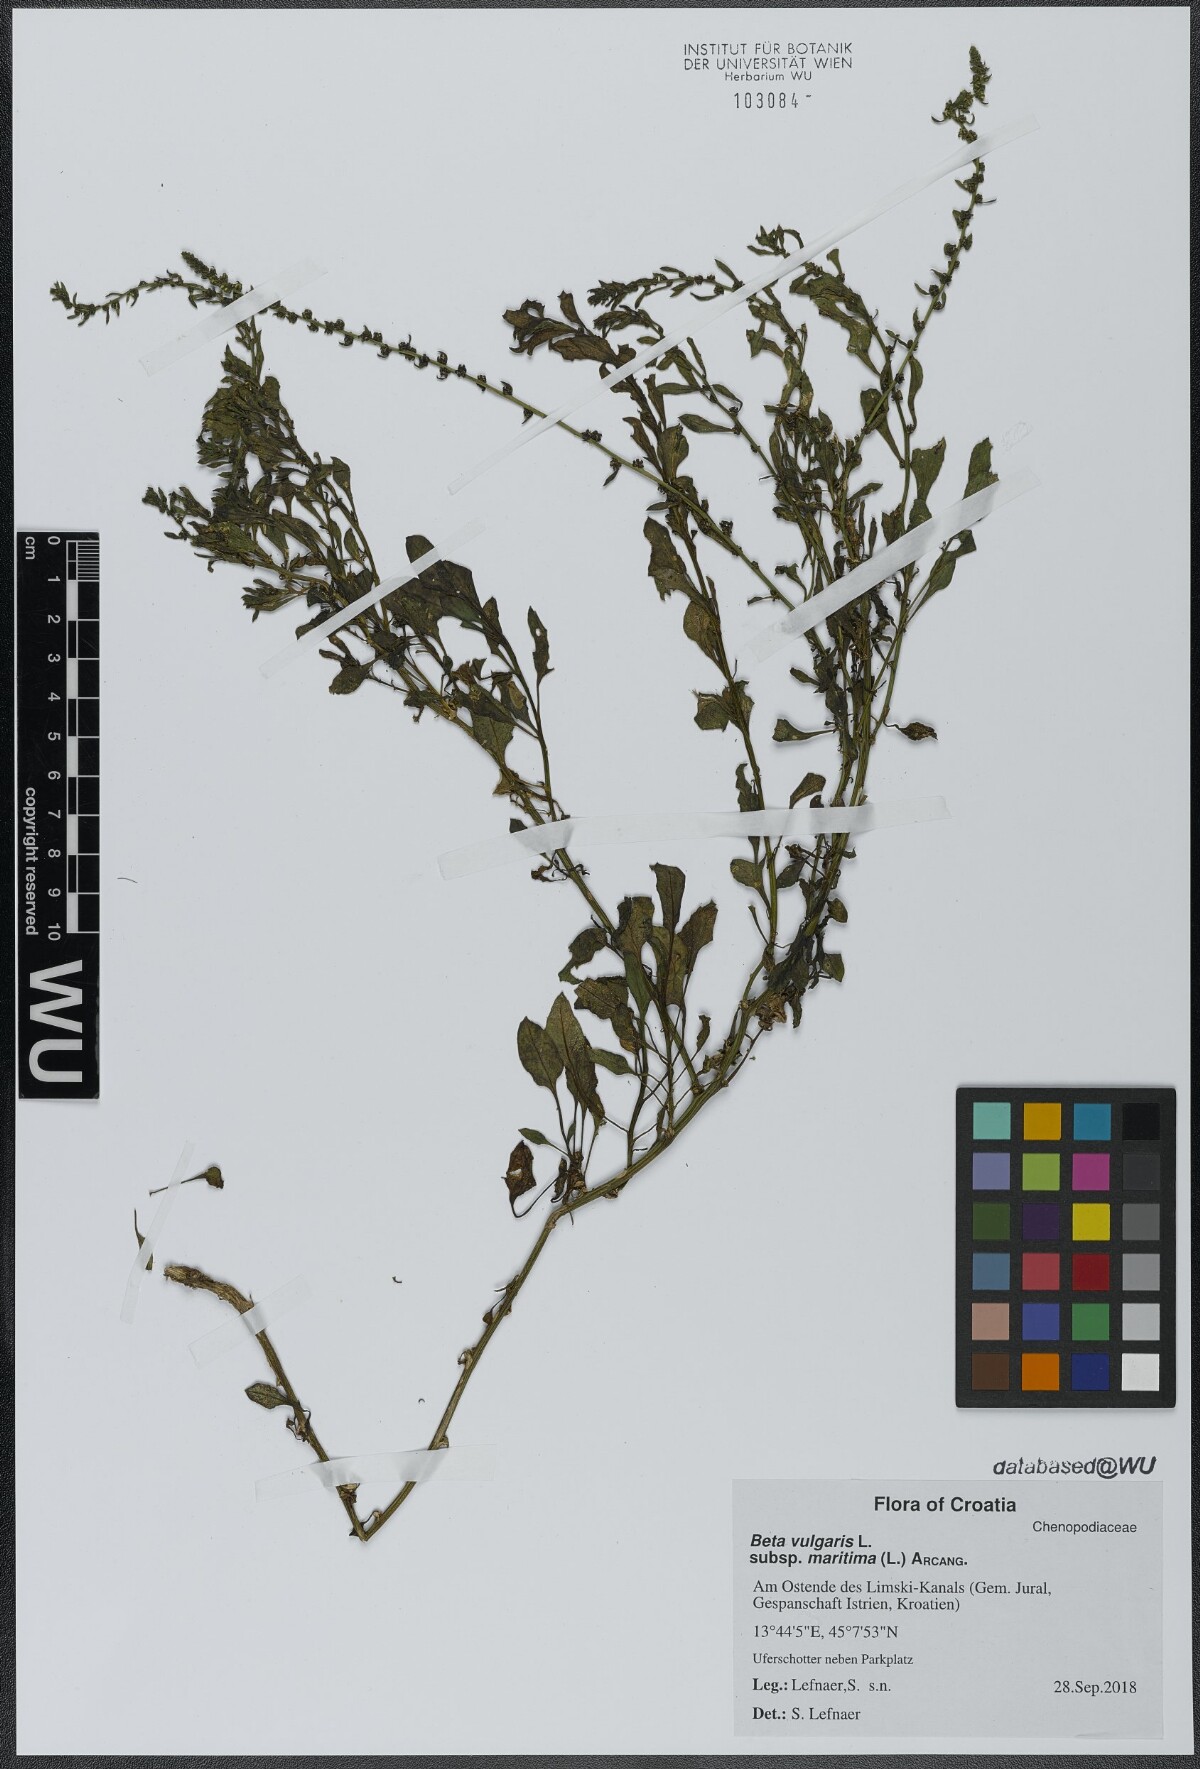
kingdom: Plantae
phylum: Tracheophyta
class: Magnoliopsida
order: Caryophyllales
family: Amaranthaceae
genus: Beta
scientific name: Beta maritima
